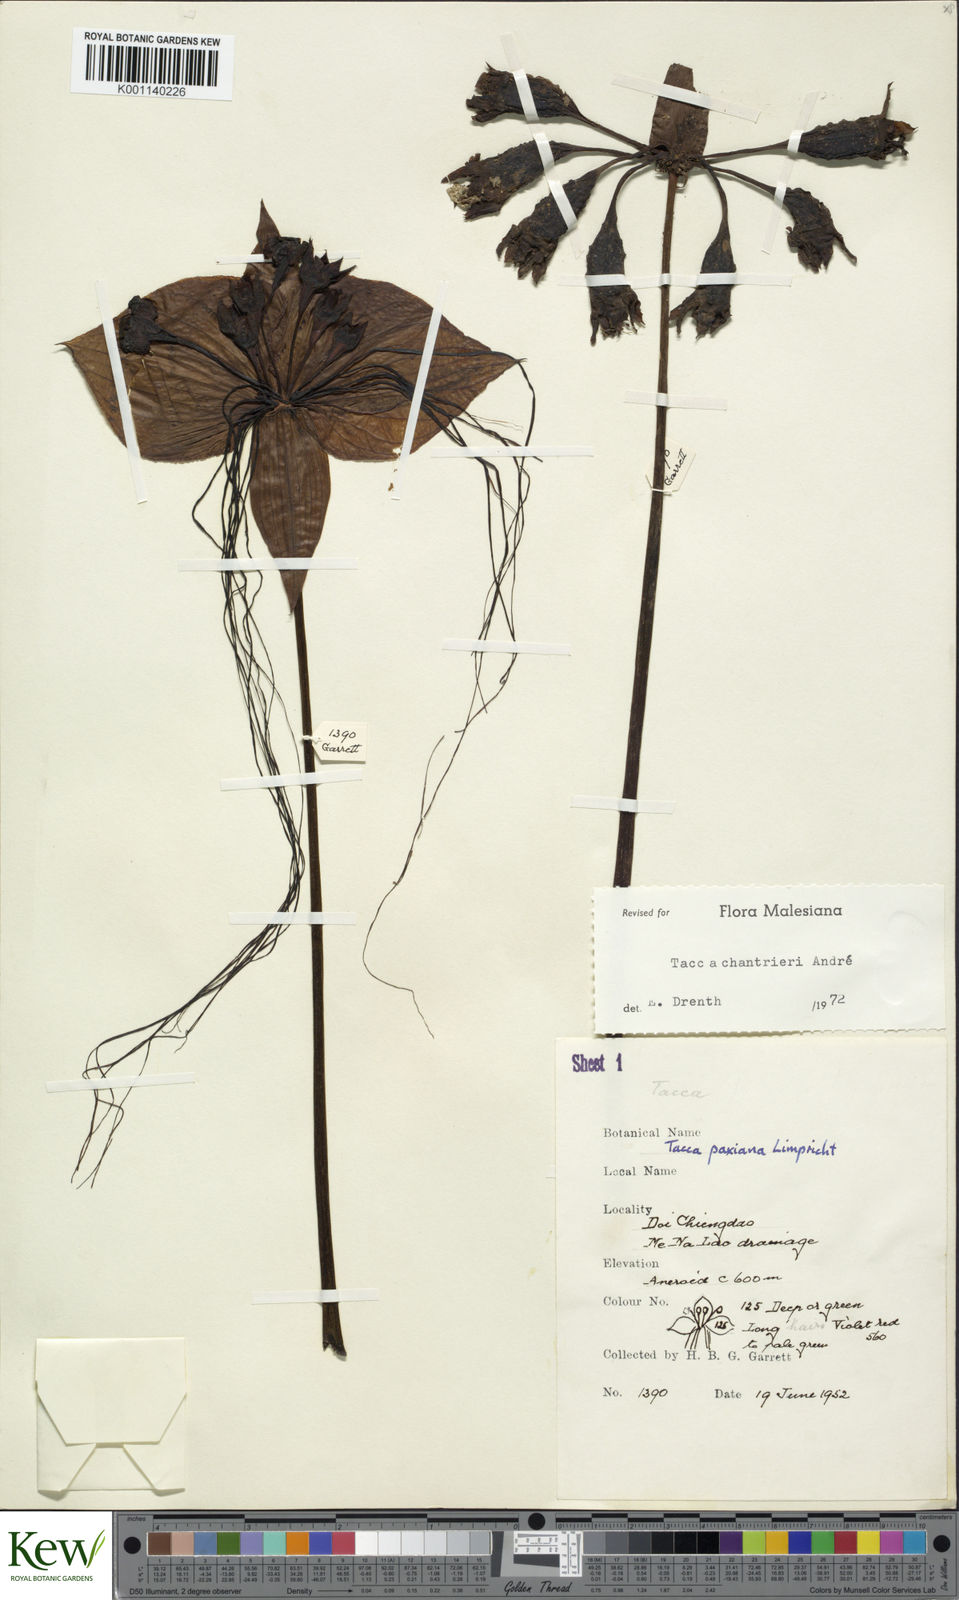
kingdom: Plantae
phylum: Tracheophyta
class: Liliopsida
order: Dioscoreales
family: Dioscoreaceae
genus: Tacca
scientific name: Tacca
